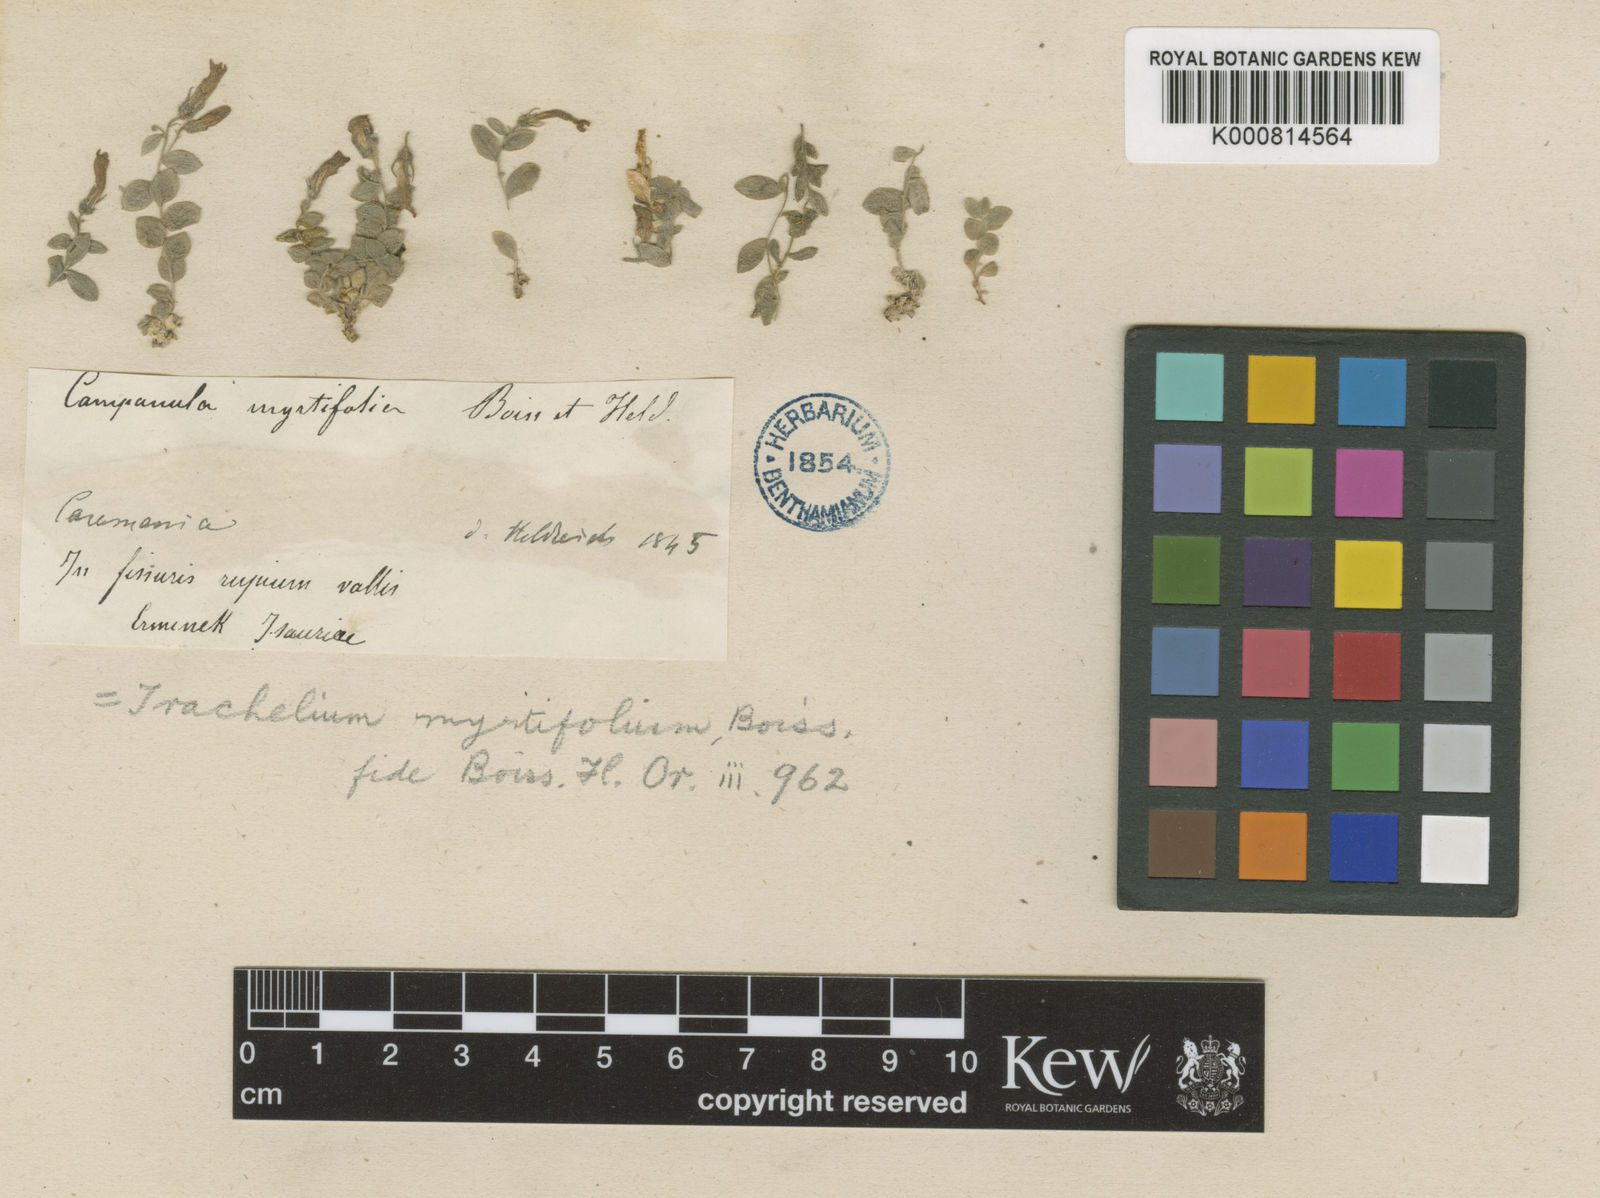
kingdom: Plantae
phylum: Tracheophyta
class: Magnoliopsida
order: Asterales
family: Campanulaceae
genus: Campanula
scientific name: Campanula
